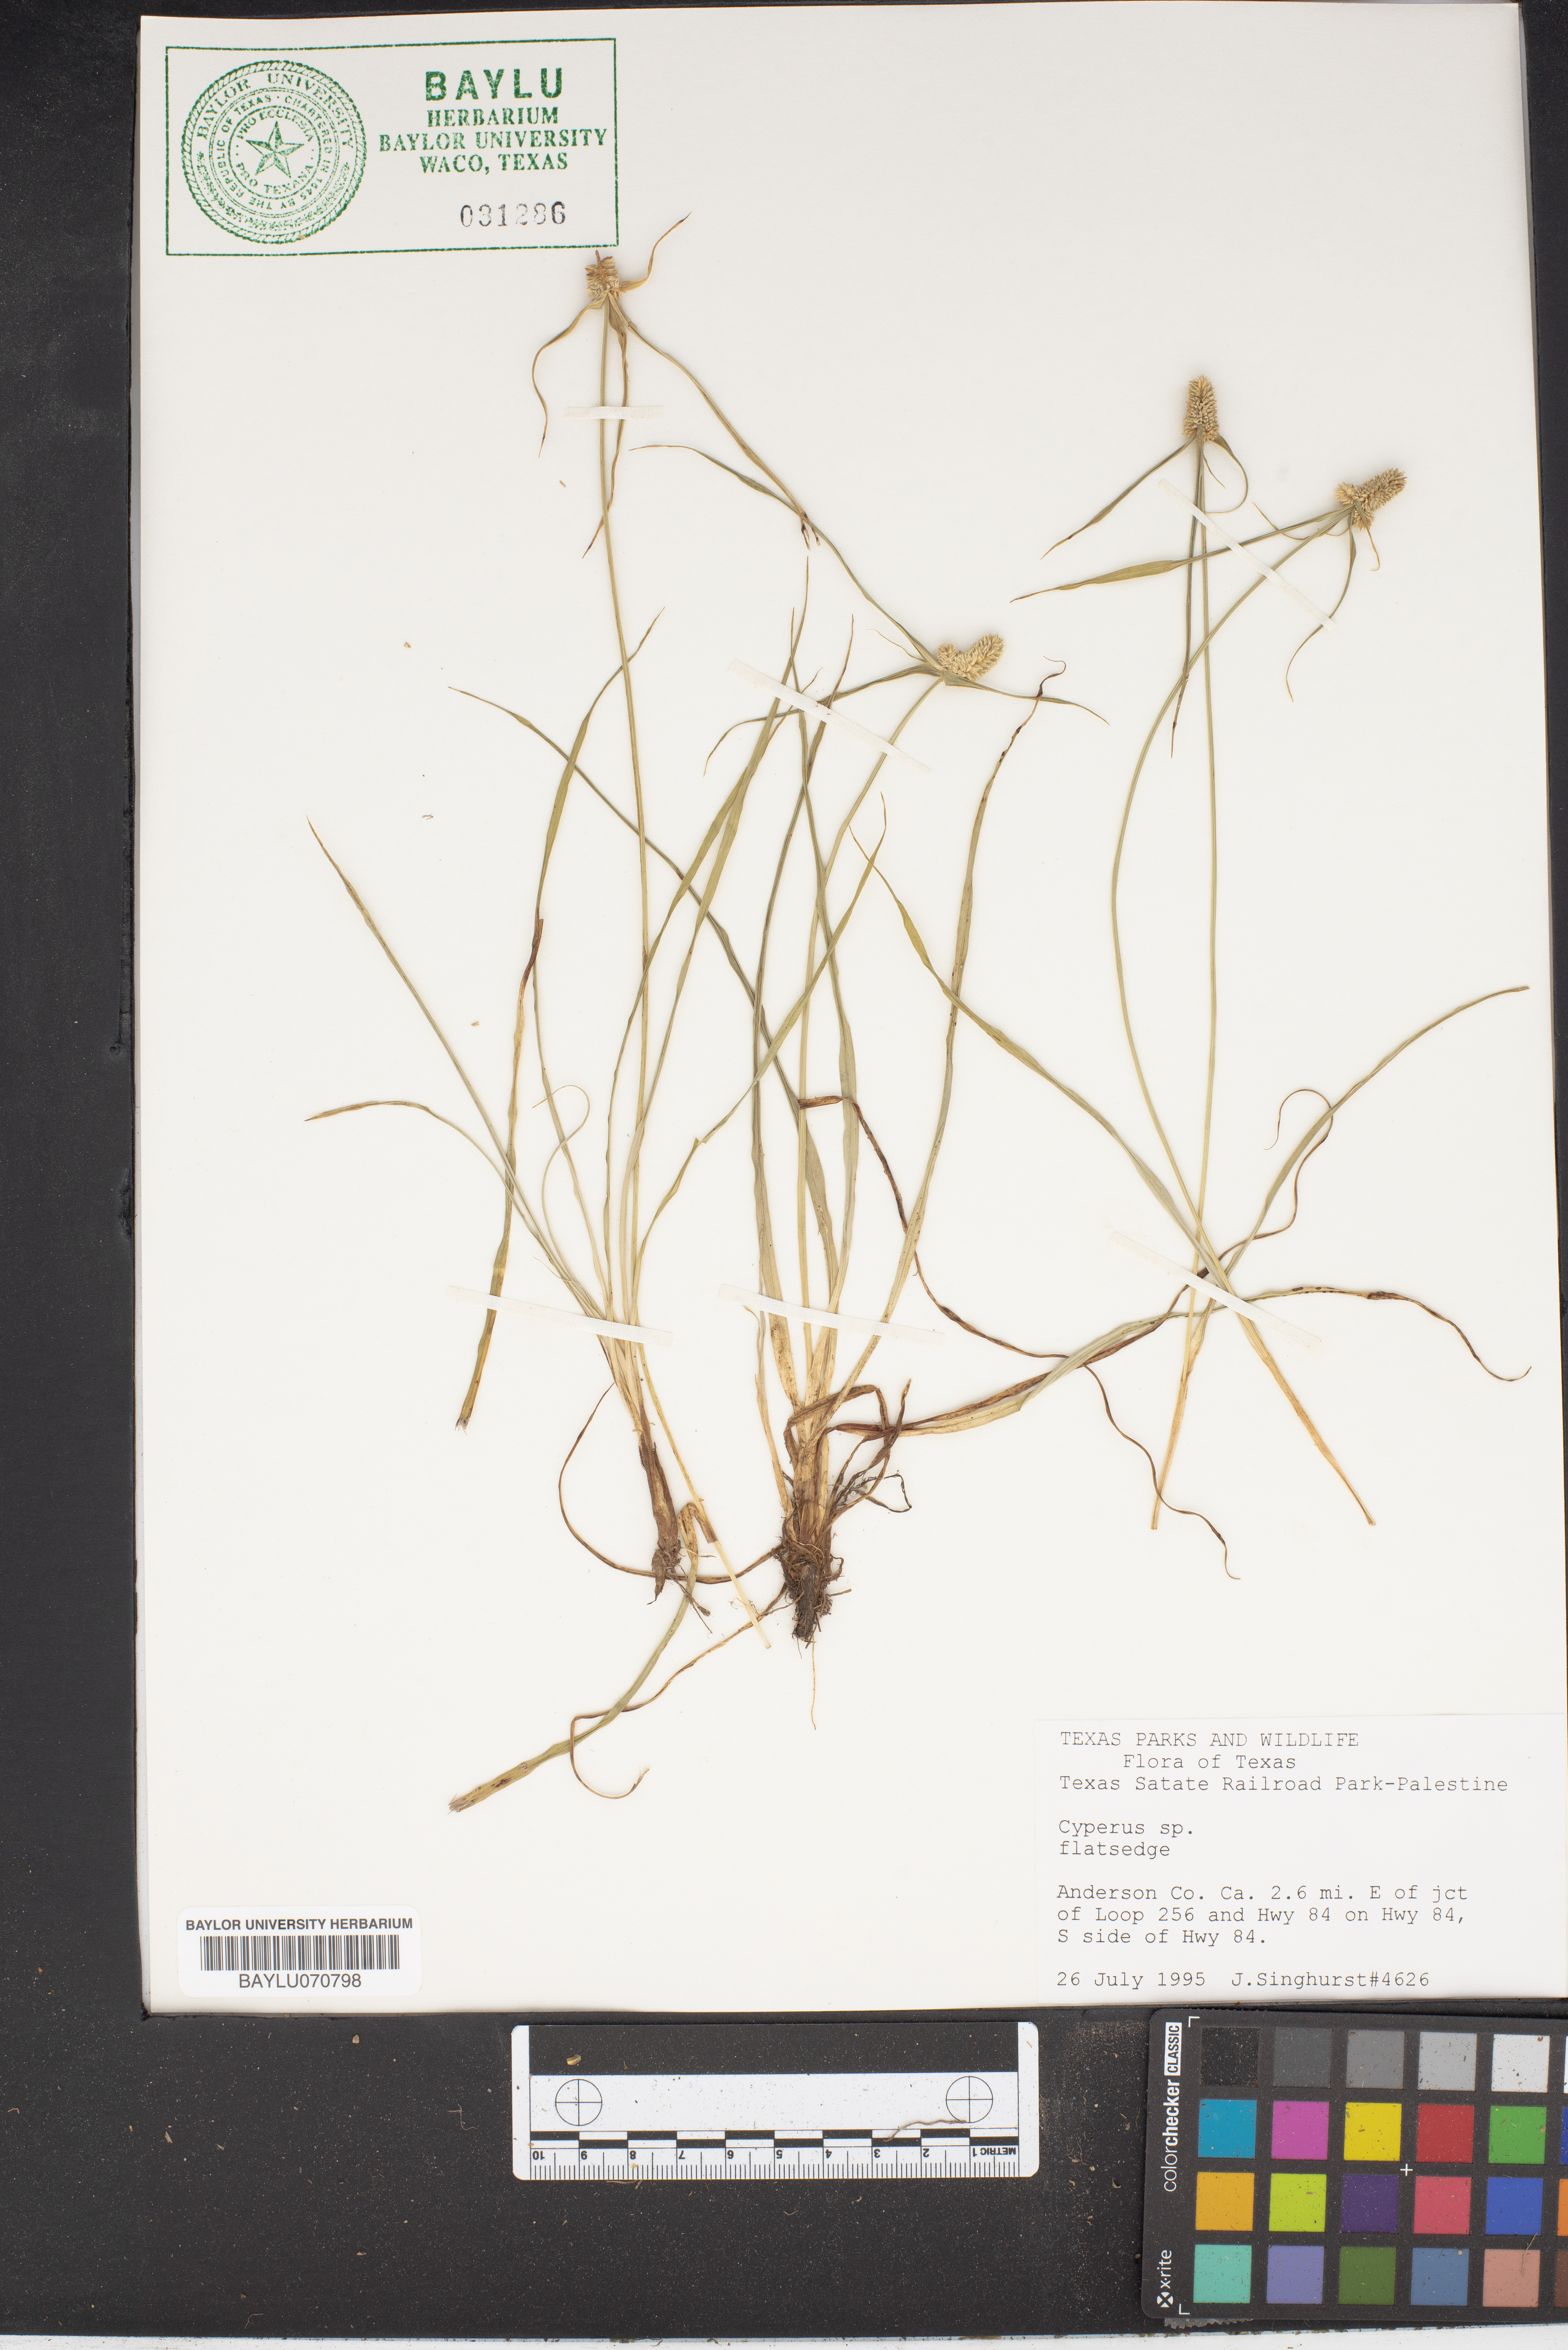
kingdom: Plantae
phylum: Tracheophyta
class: Liliopsida
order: Poales
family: Cyperaceae
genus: Cyperus
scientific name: Cyperus
